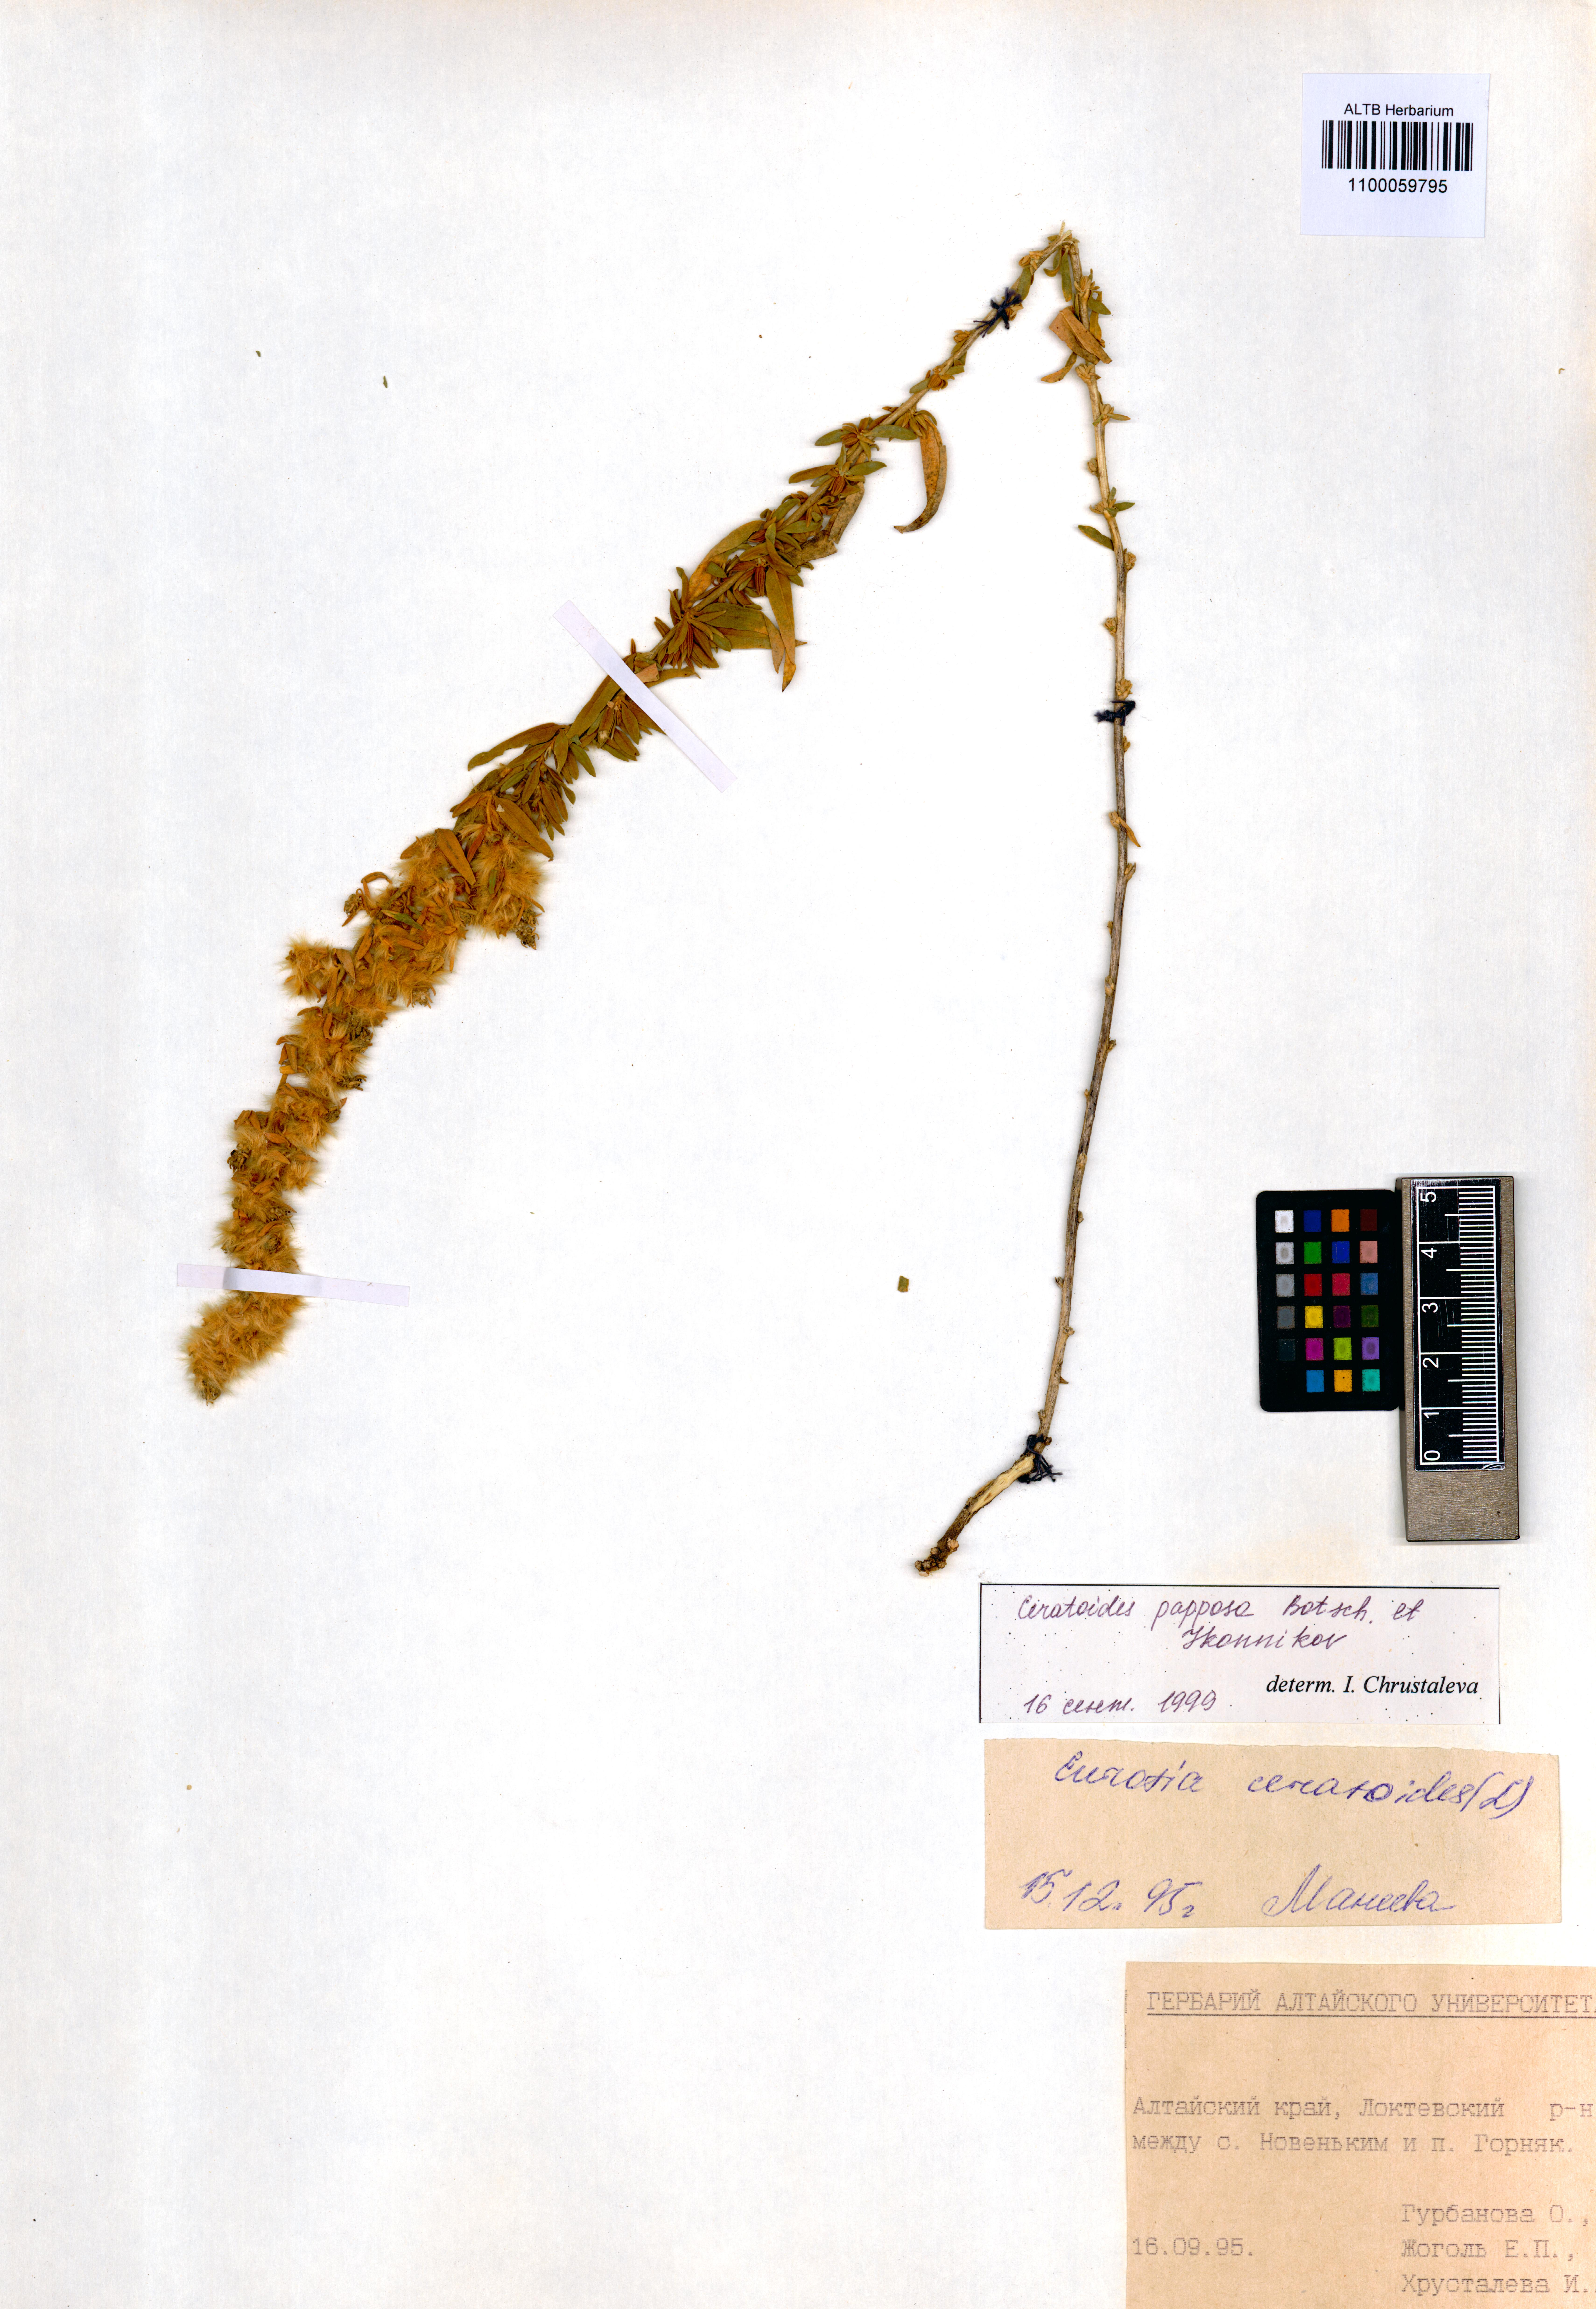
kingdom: Plantae
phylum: Tracheophyta
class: Magnoliopsida
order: Caryophyllales
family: Amaranthaceae
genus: Krascheninnikovia
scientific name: Krascheninnikovia ceratoides
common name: Pamirian winterfat
